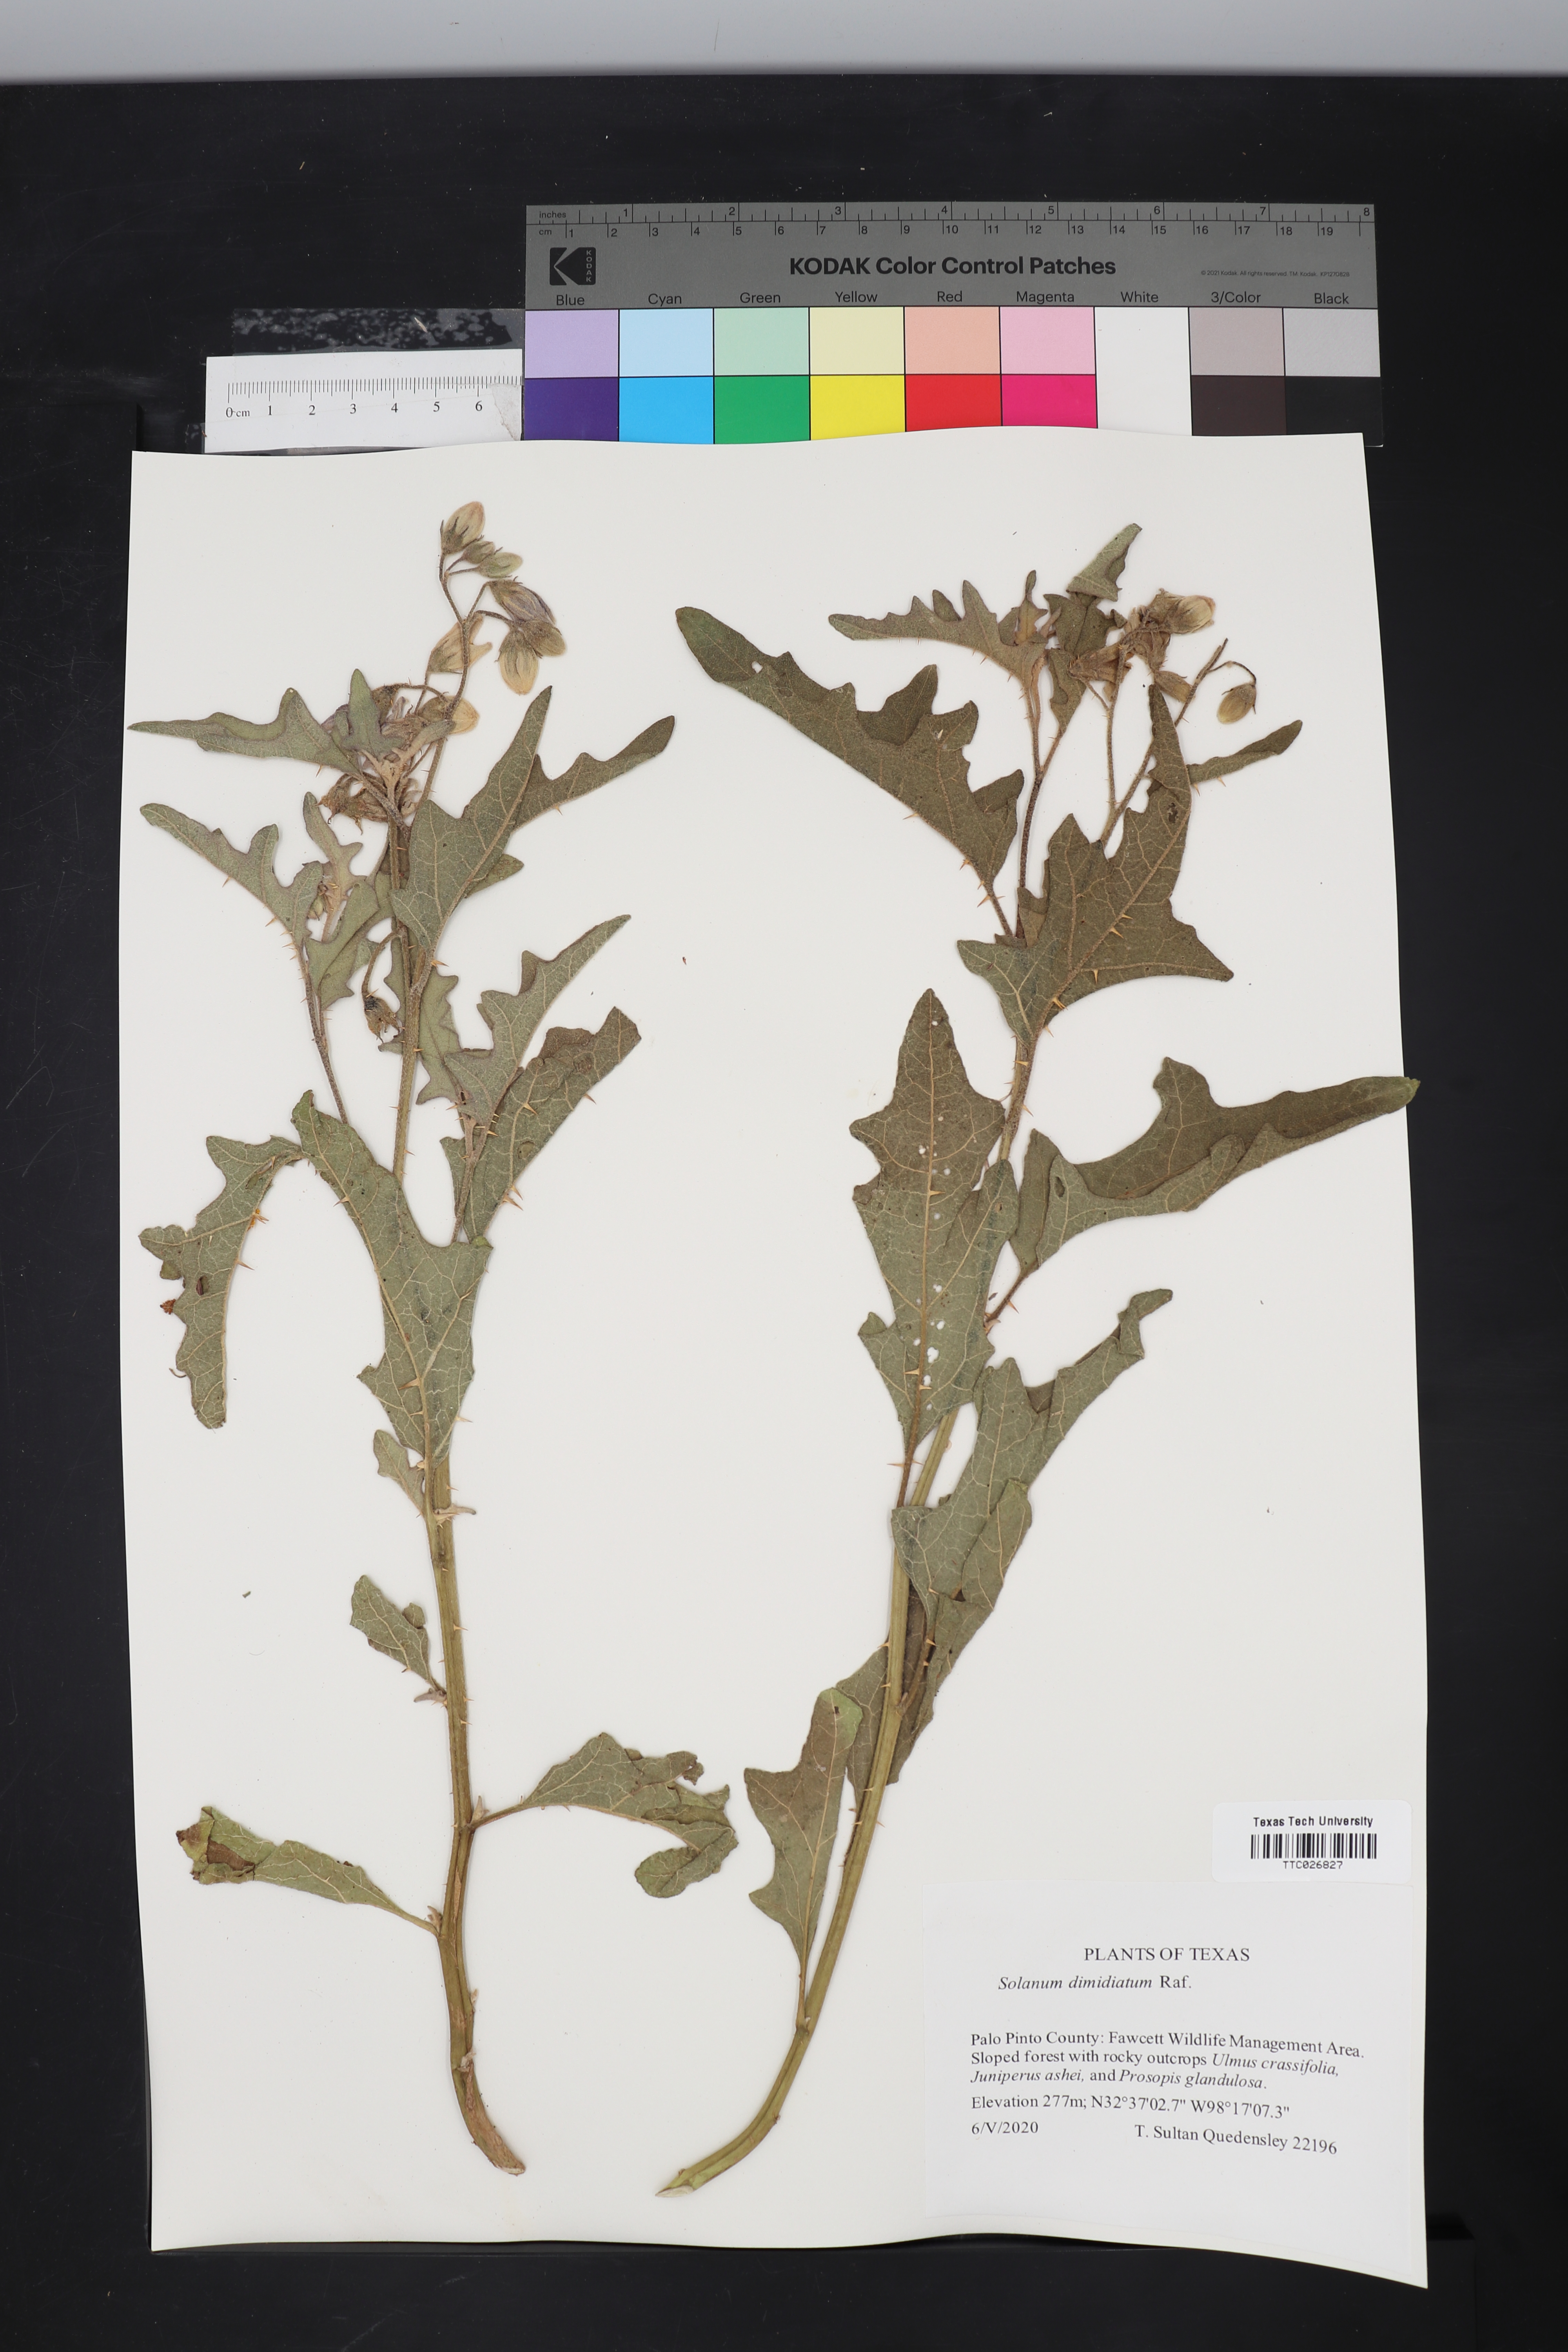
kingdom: Plantae
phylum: Tracheophyta
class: Magnoliopsida
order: Solanales
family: Solanaceae
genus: Solanum
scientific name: Solanum dimidiatum
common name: Carolina horse-nettle
